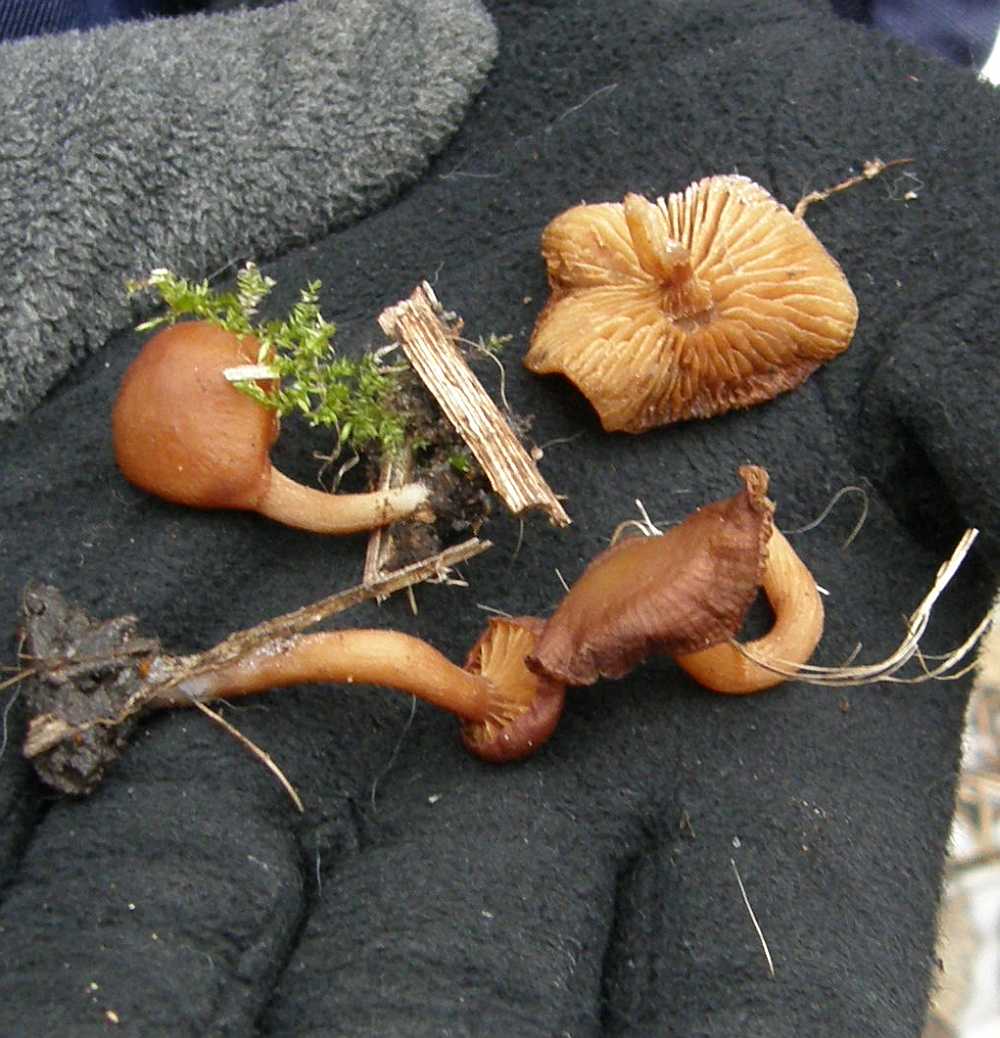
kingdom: Fungi
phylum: Basidiomycota
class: Agaricomycetes
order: Agaricales
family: Tubariaceae
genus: Tubaria
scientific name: Tubaria furfuracea
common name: kliddet fnughat
